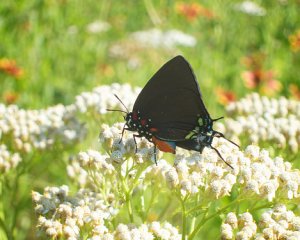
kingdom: Animalia
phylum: Arthropoda
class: Insecta
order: Lepidoptera
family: Lycaenidae
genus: Atlides
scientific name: Atlides halesus
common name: Great Purple Hairstreak
